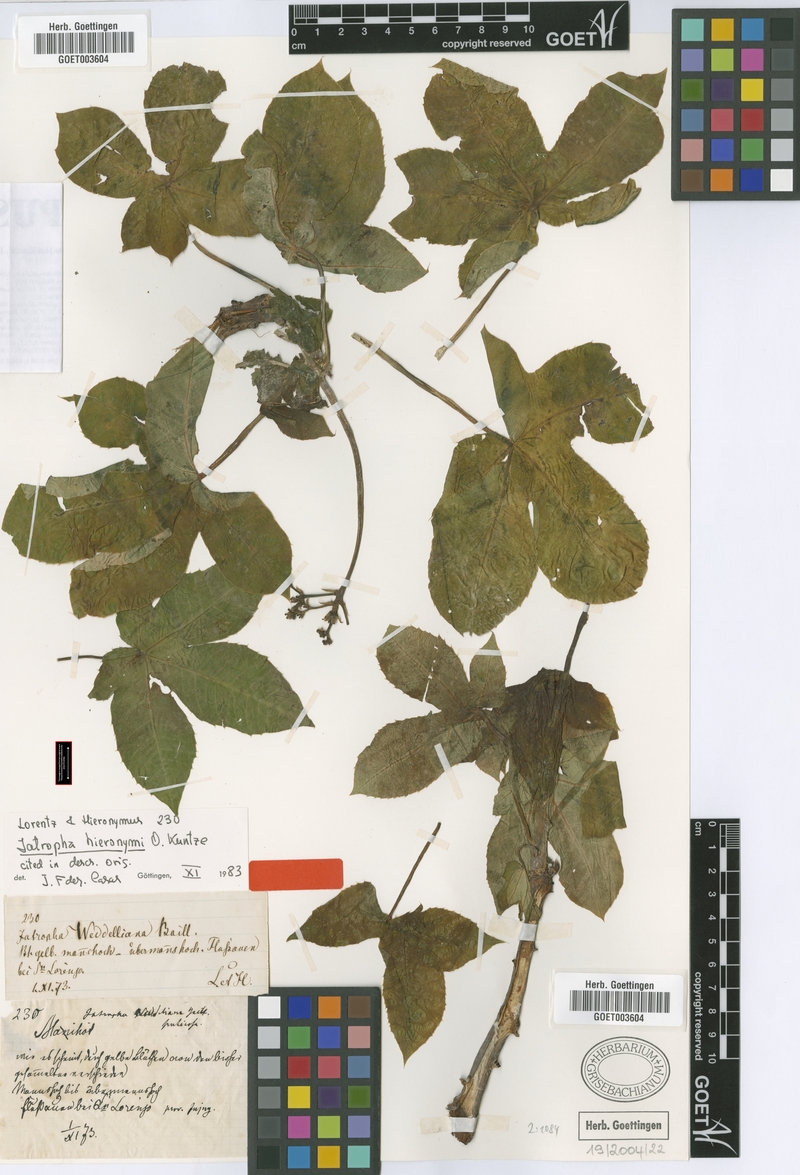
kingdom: Plantae
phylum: Tracheophyta
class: Magnoliopsida
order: Malpighiales
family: Euphorbiaceae
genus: Jatropha
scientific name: Jatropha hieronymi
